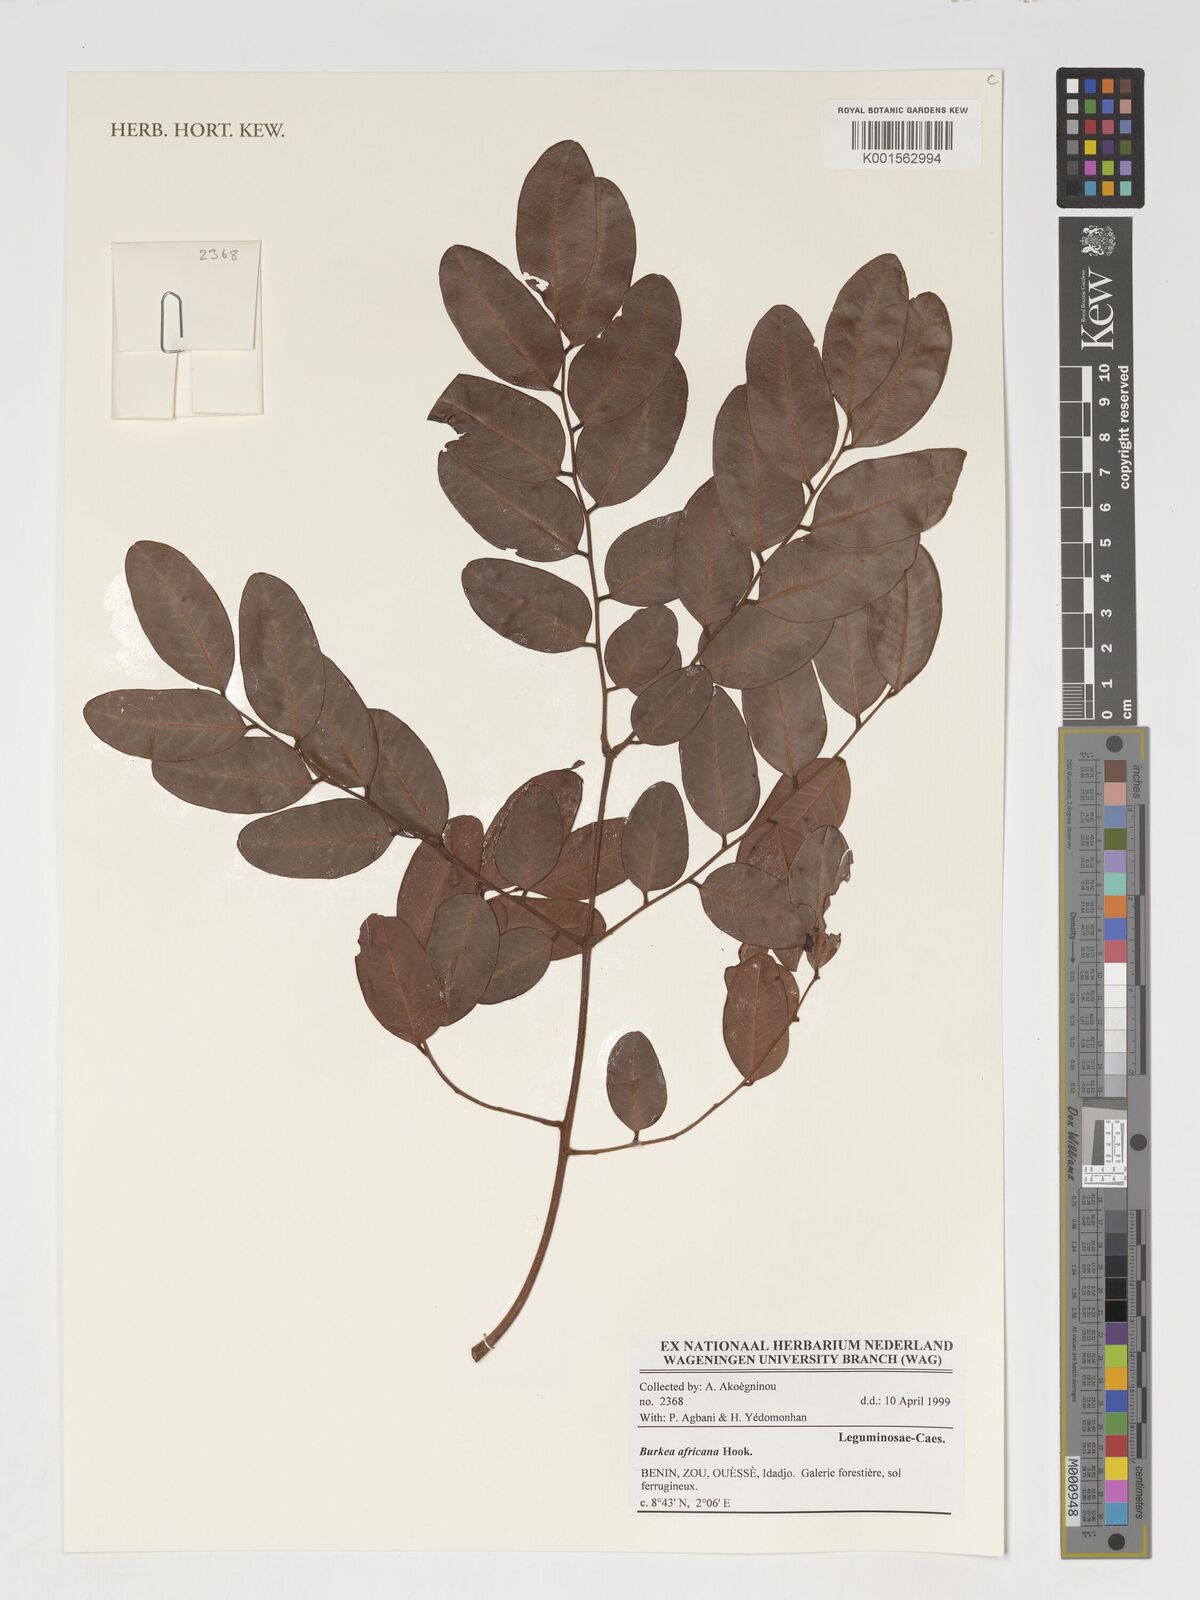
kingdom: Plantae
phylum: Tracheophyta
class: Magnoliopsida
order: Fabales
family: Fabaceae
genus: Burkea
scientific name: Burkea africana
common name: Mkalati tree
